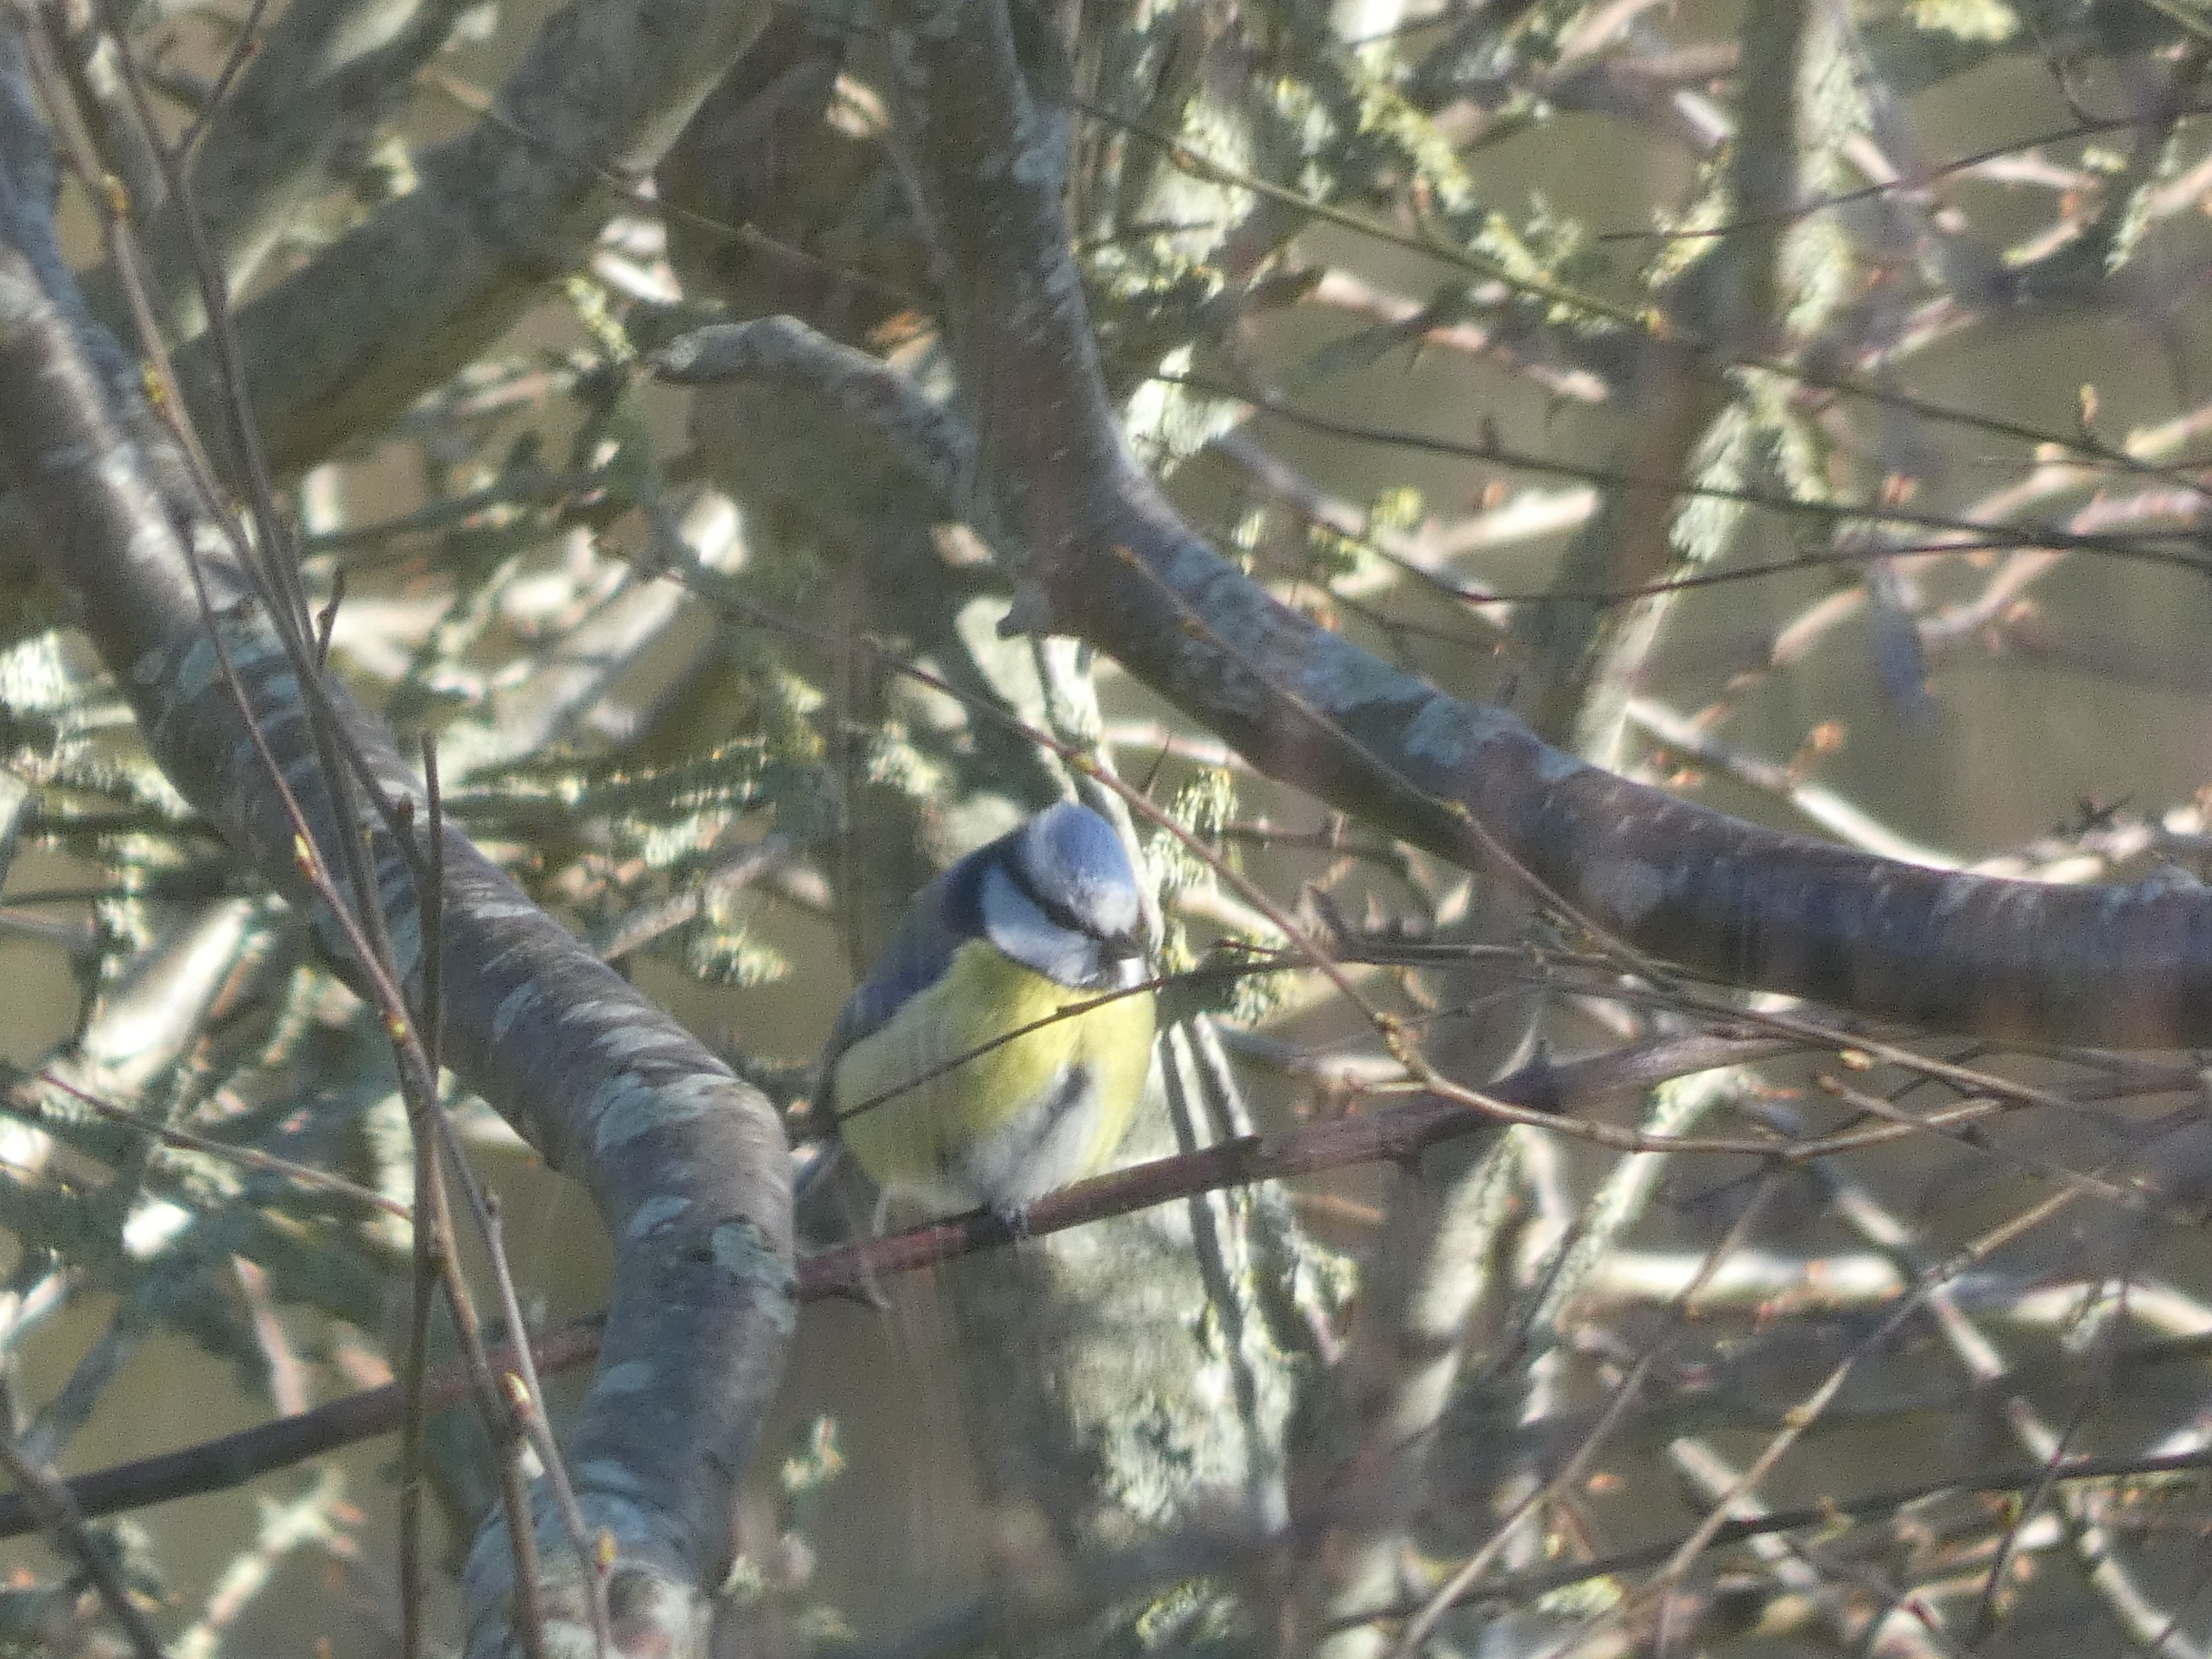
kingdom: Animalia
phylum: Chordata
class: Aves
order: Passeriformes
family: Paridae
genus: Cyanistes
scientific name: Cyanistes caeruleus
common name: Blåmejse
